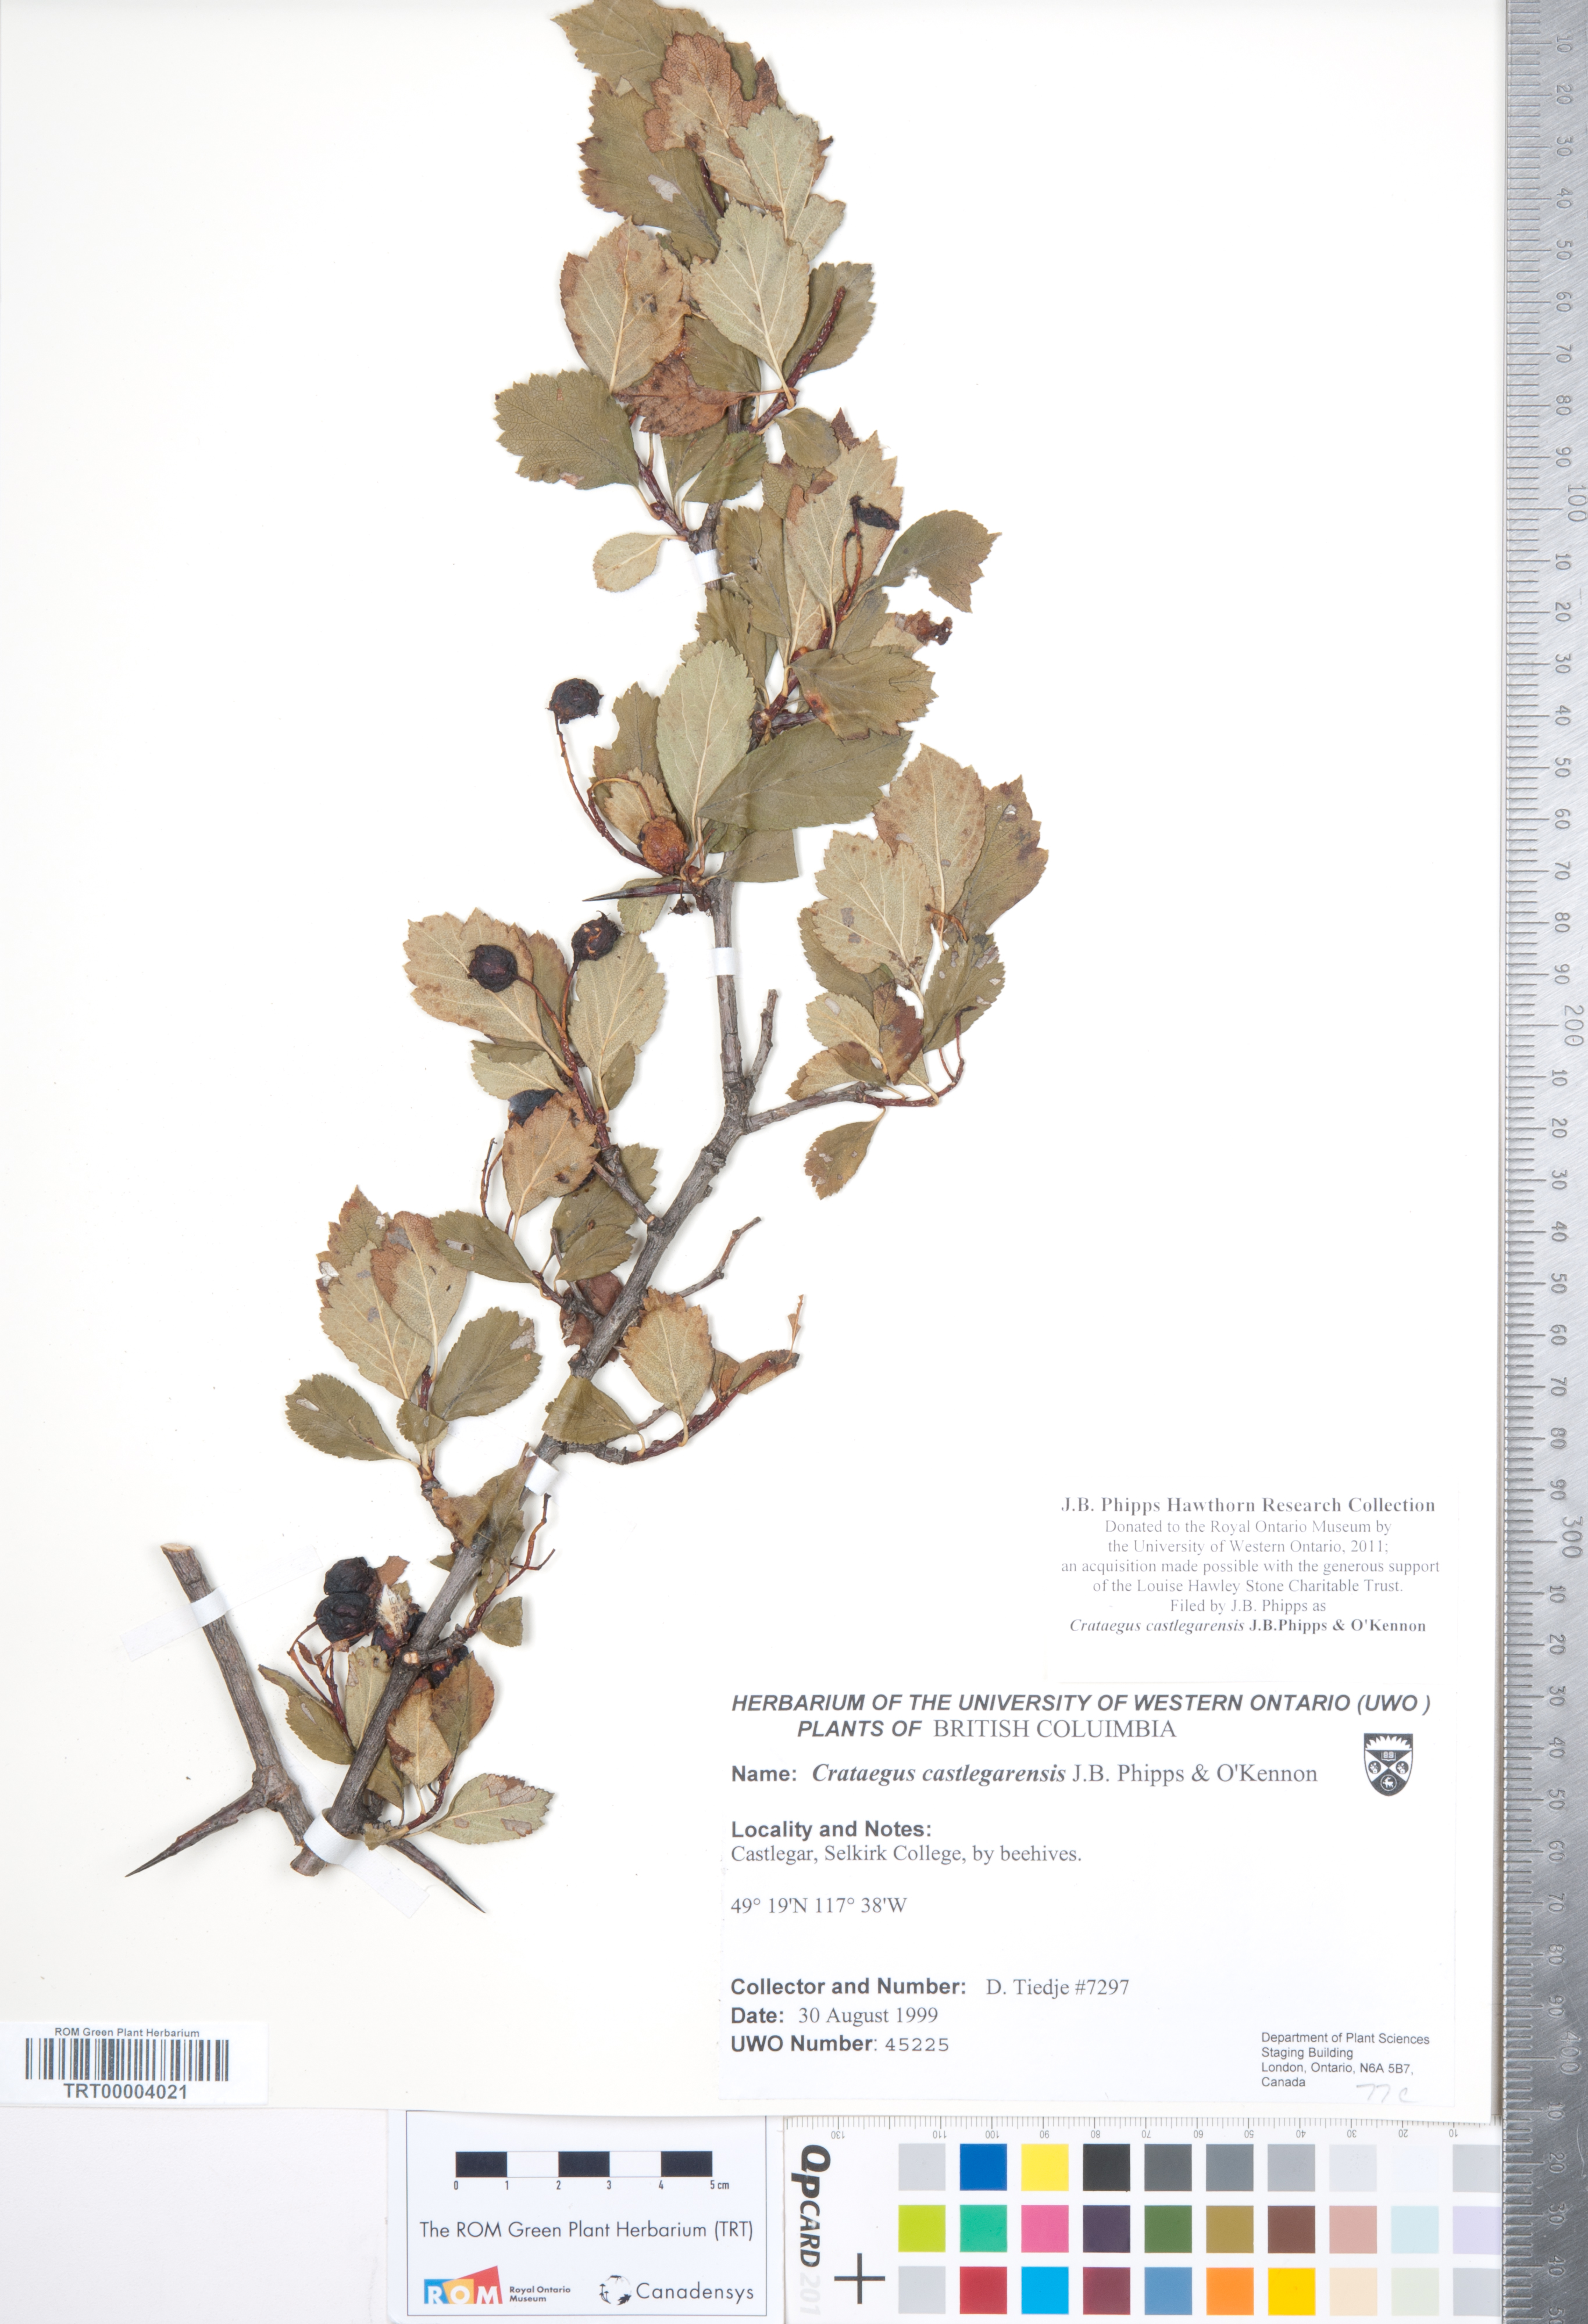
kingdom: Plantae
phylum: Tracheophyta
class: Magnoliopsida
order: Rosales
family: Rosaceae
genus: Crataegus
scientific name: Crataegus castlegarensis
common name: Castlegar hawthorn
